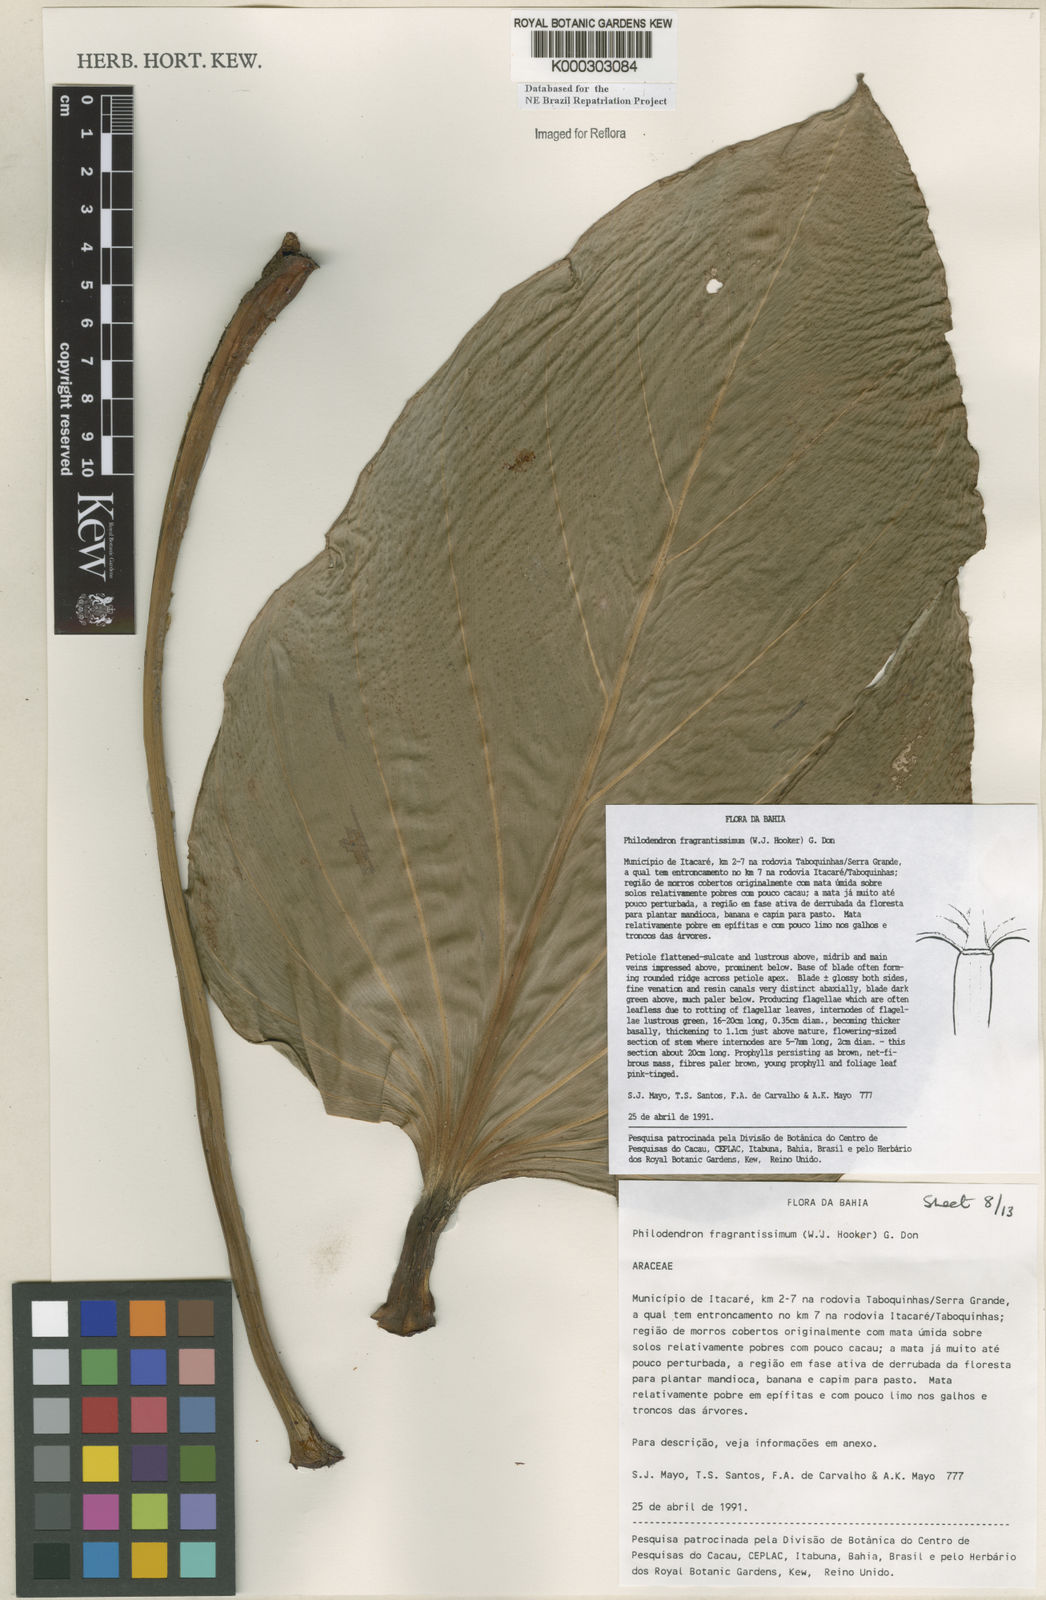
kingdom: Plantae
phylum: Tracheophyta
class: Liliopsida
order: Alismatales
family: Araceae
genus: Philodendron
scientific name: Philodendron fragrantissimum
